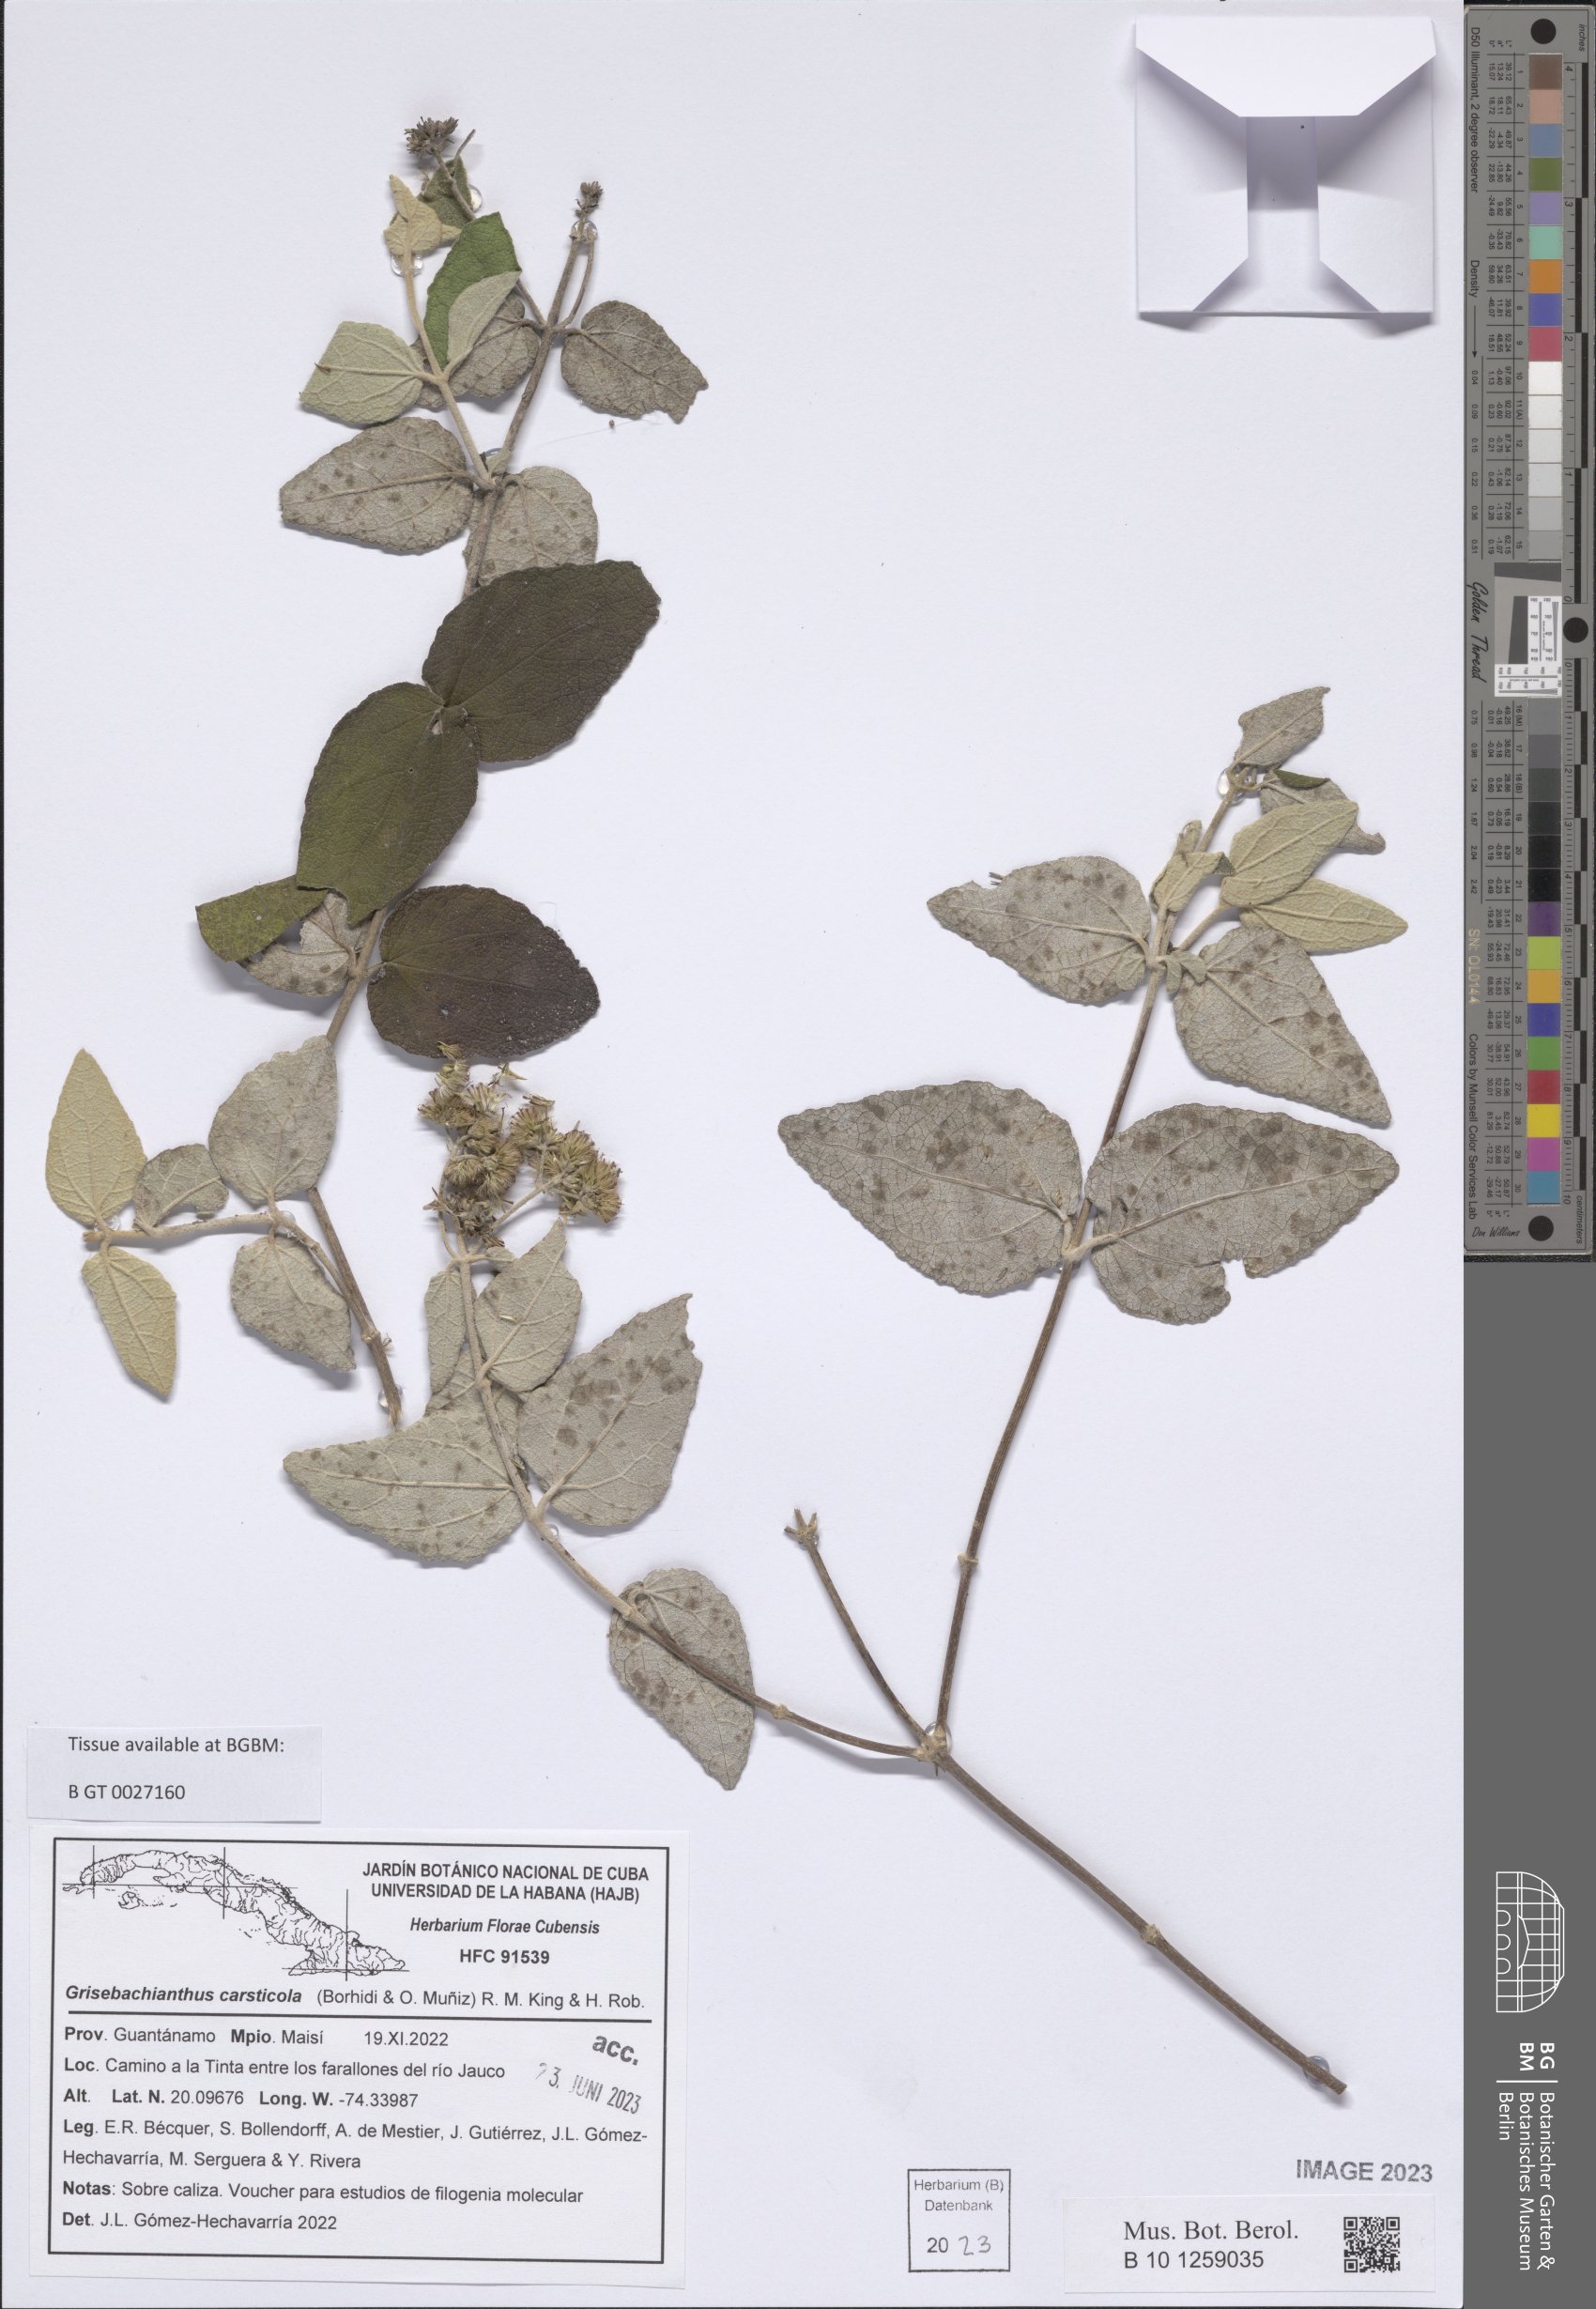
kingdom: Plantae
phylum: Tracheophyta
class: Magnoliopsida
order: Asterales
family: Asteraceae
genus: Grisebachianthus
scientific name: Grisebachianthus carsticola
